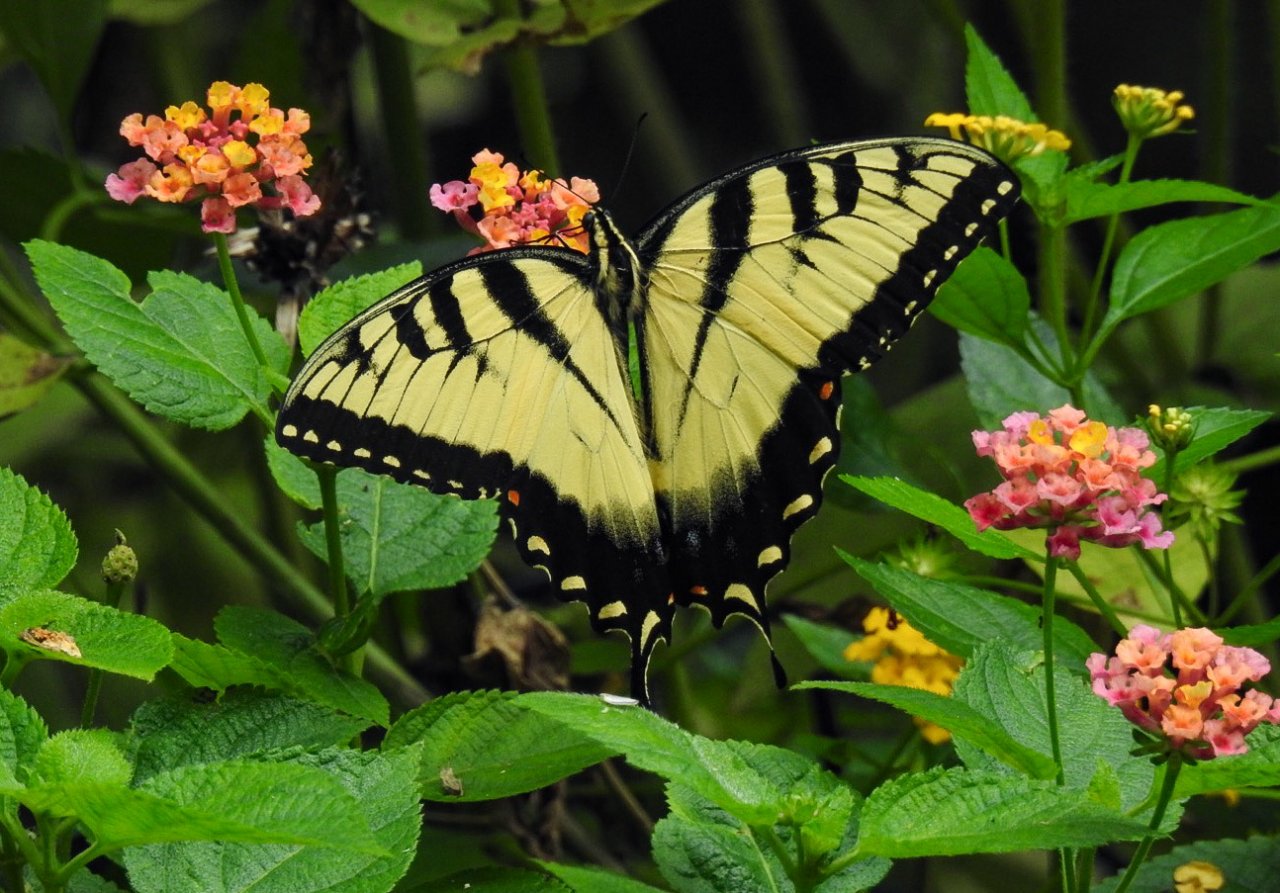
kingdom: Animalia
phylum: Arthropoda
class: Insecta
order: Lepidoptera
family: Papilionidae
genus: Pterourus
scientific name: Pterourus glaucus
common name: Eastern Tiger Swallowtail
